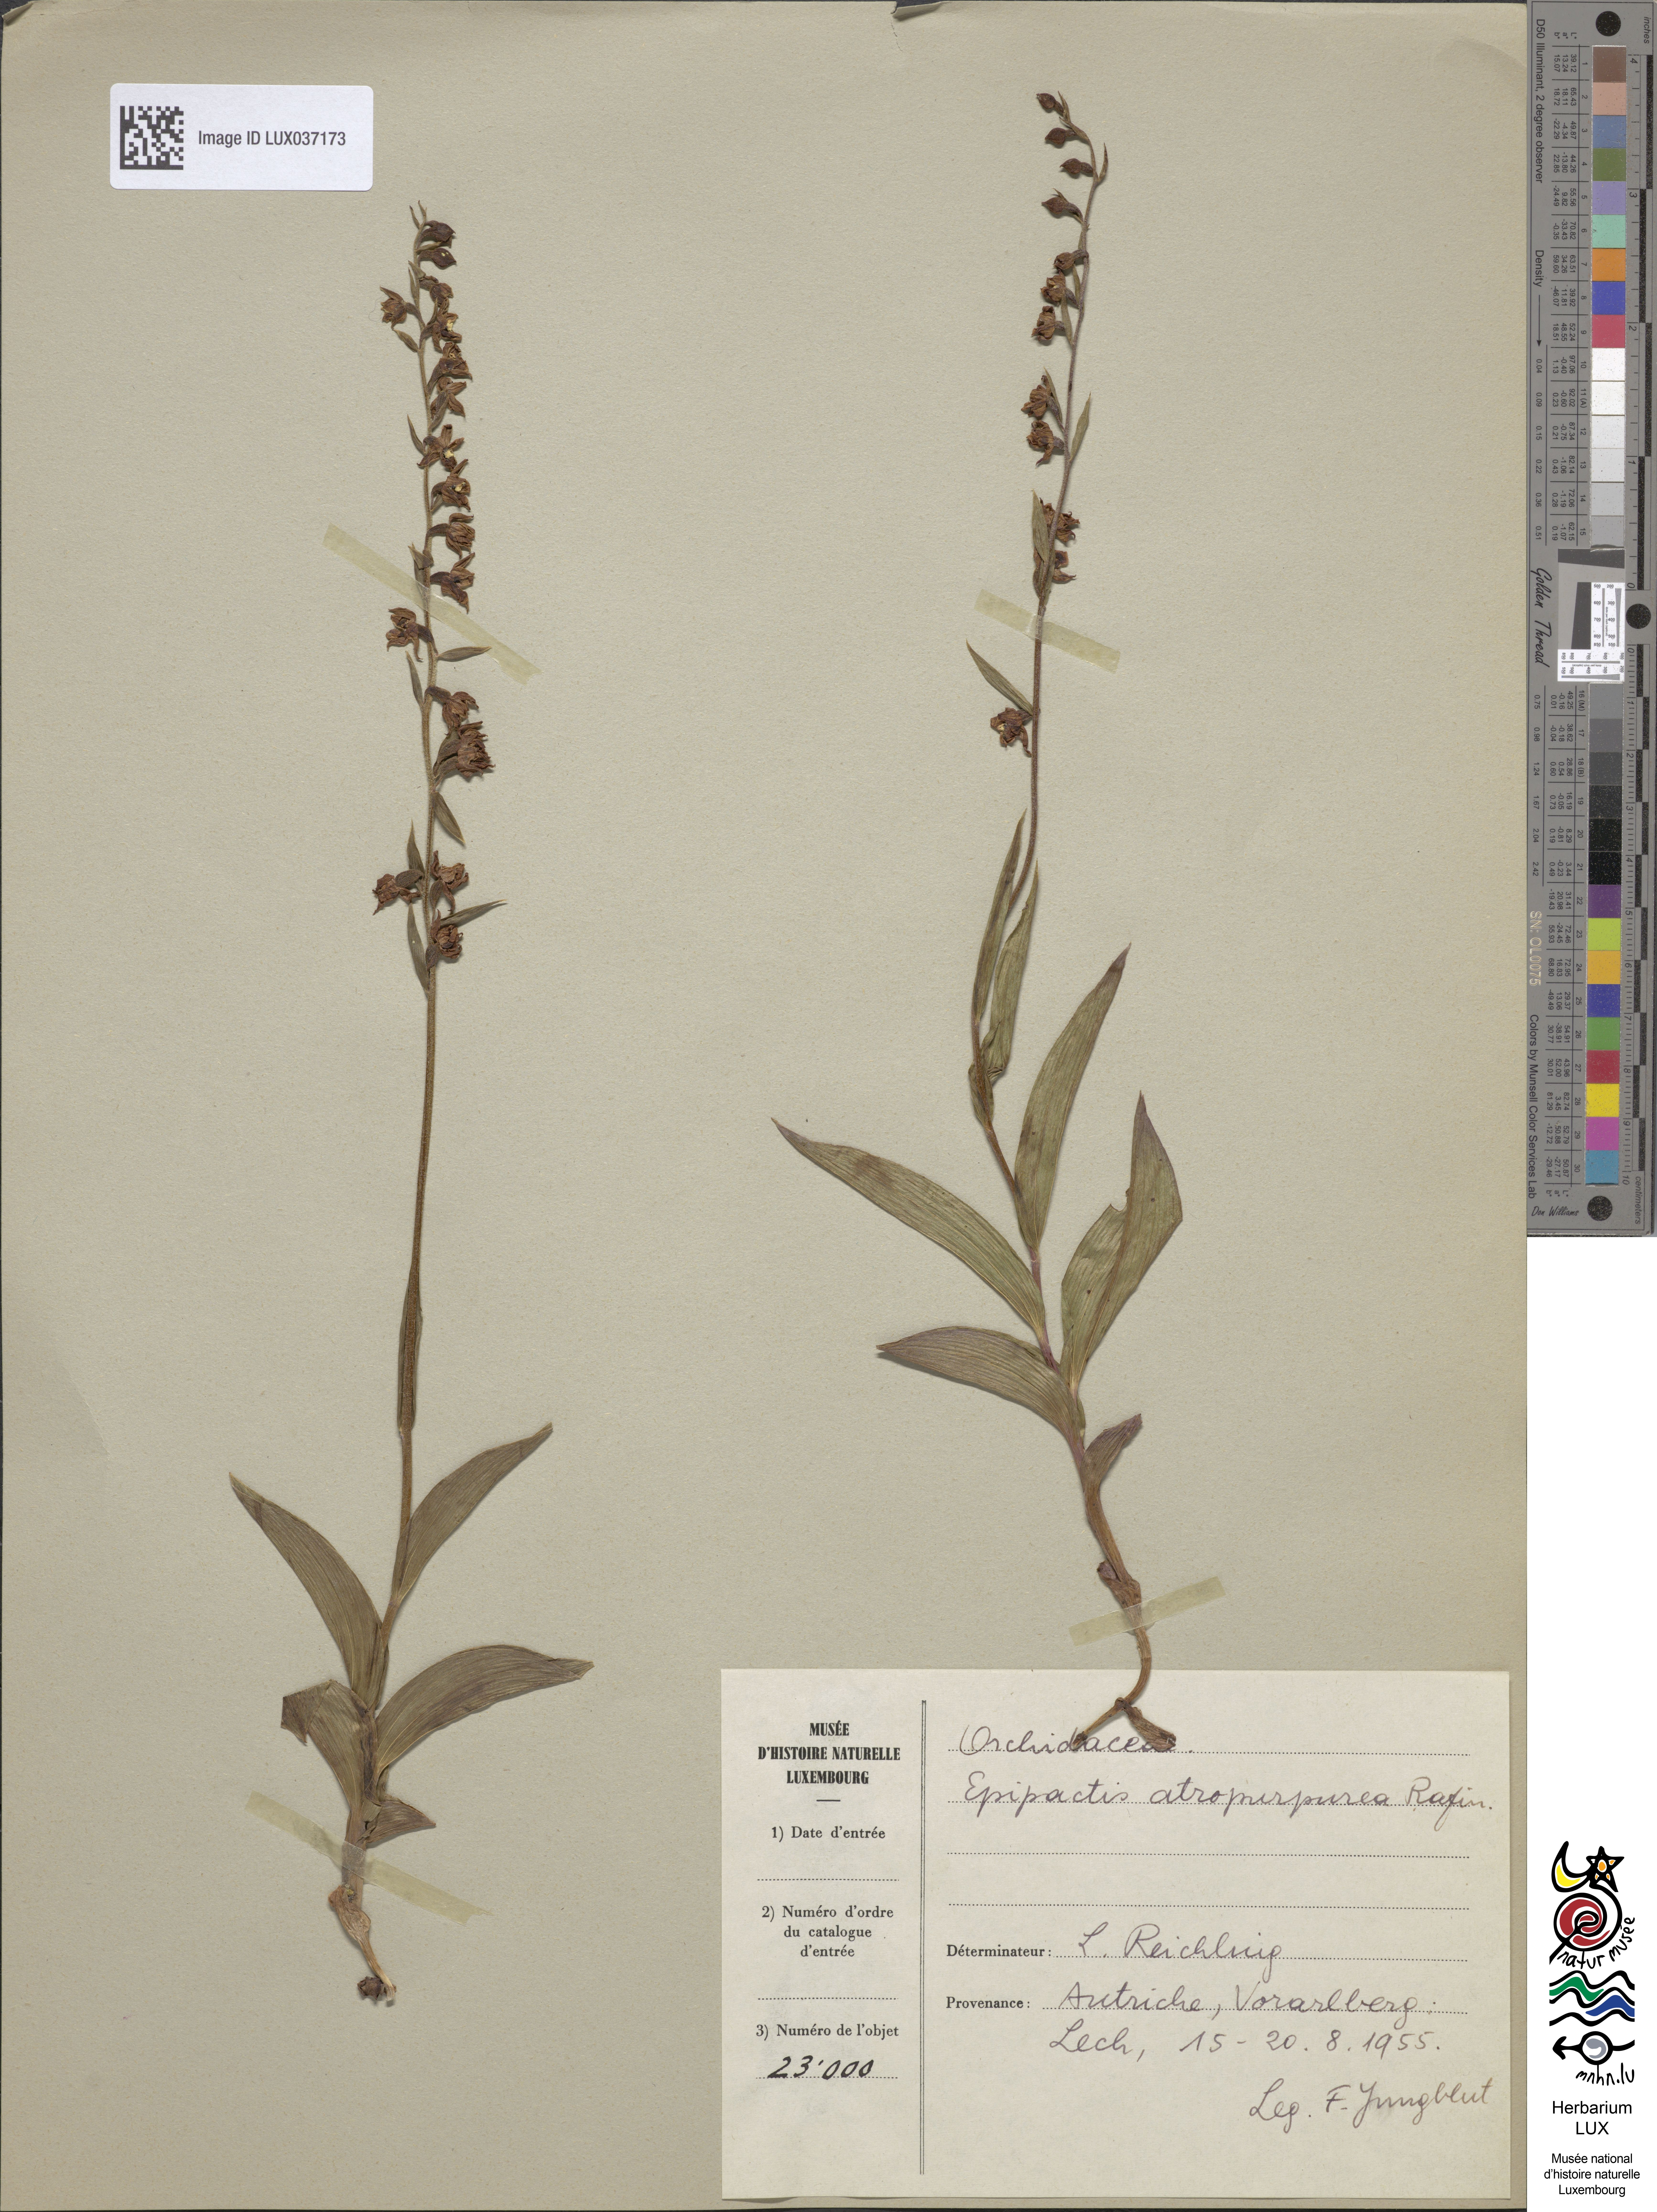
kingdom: Plantae
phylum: Tracheophyta
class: Liliopsida
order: Asparagales
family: Orchidaceae
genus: Epipactis
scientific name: Epipactis atrorubens
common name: Dark-red helleborine
